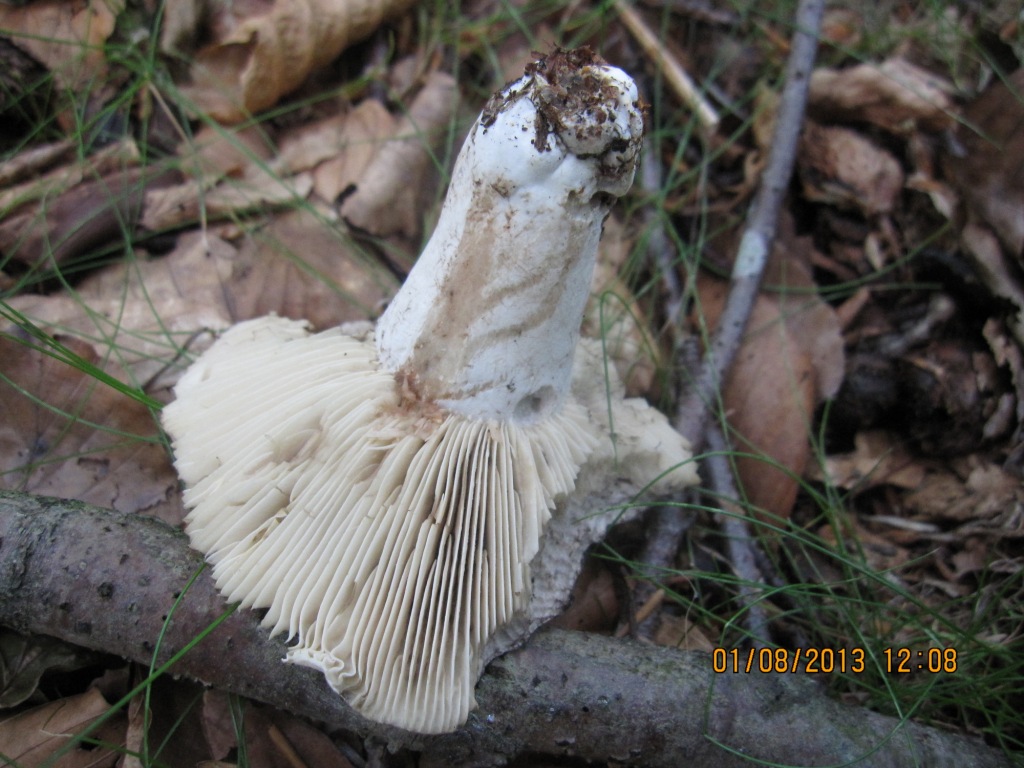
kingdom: Fungi
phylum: Basidiomycota
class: Agaricomycetes
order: Russulales
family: Russulaceae
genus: Russula
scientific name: Russula densifolia
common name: tætbladet skørhat
